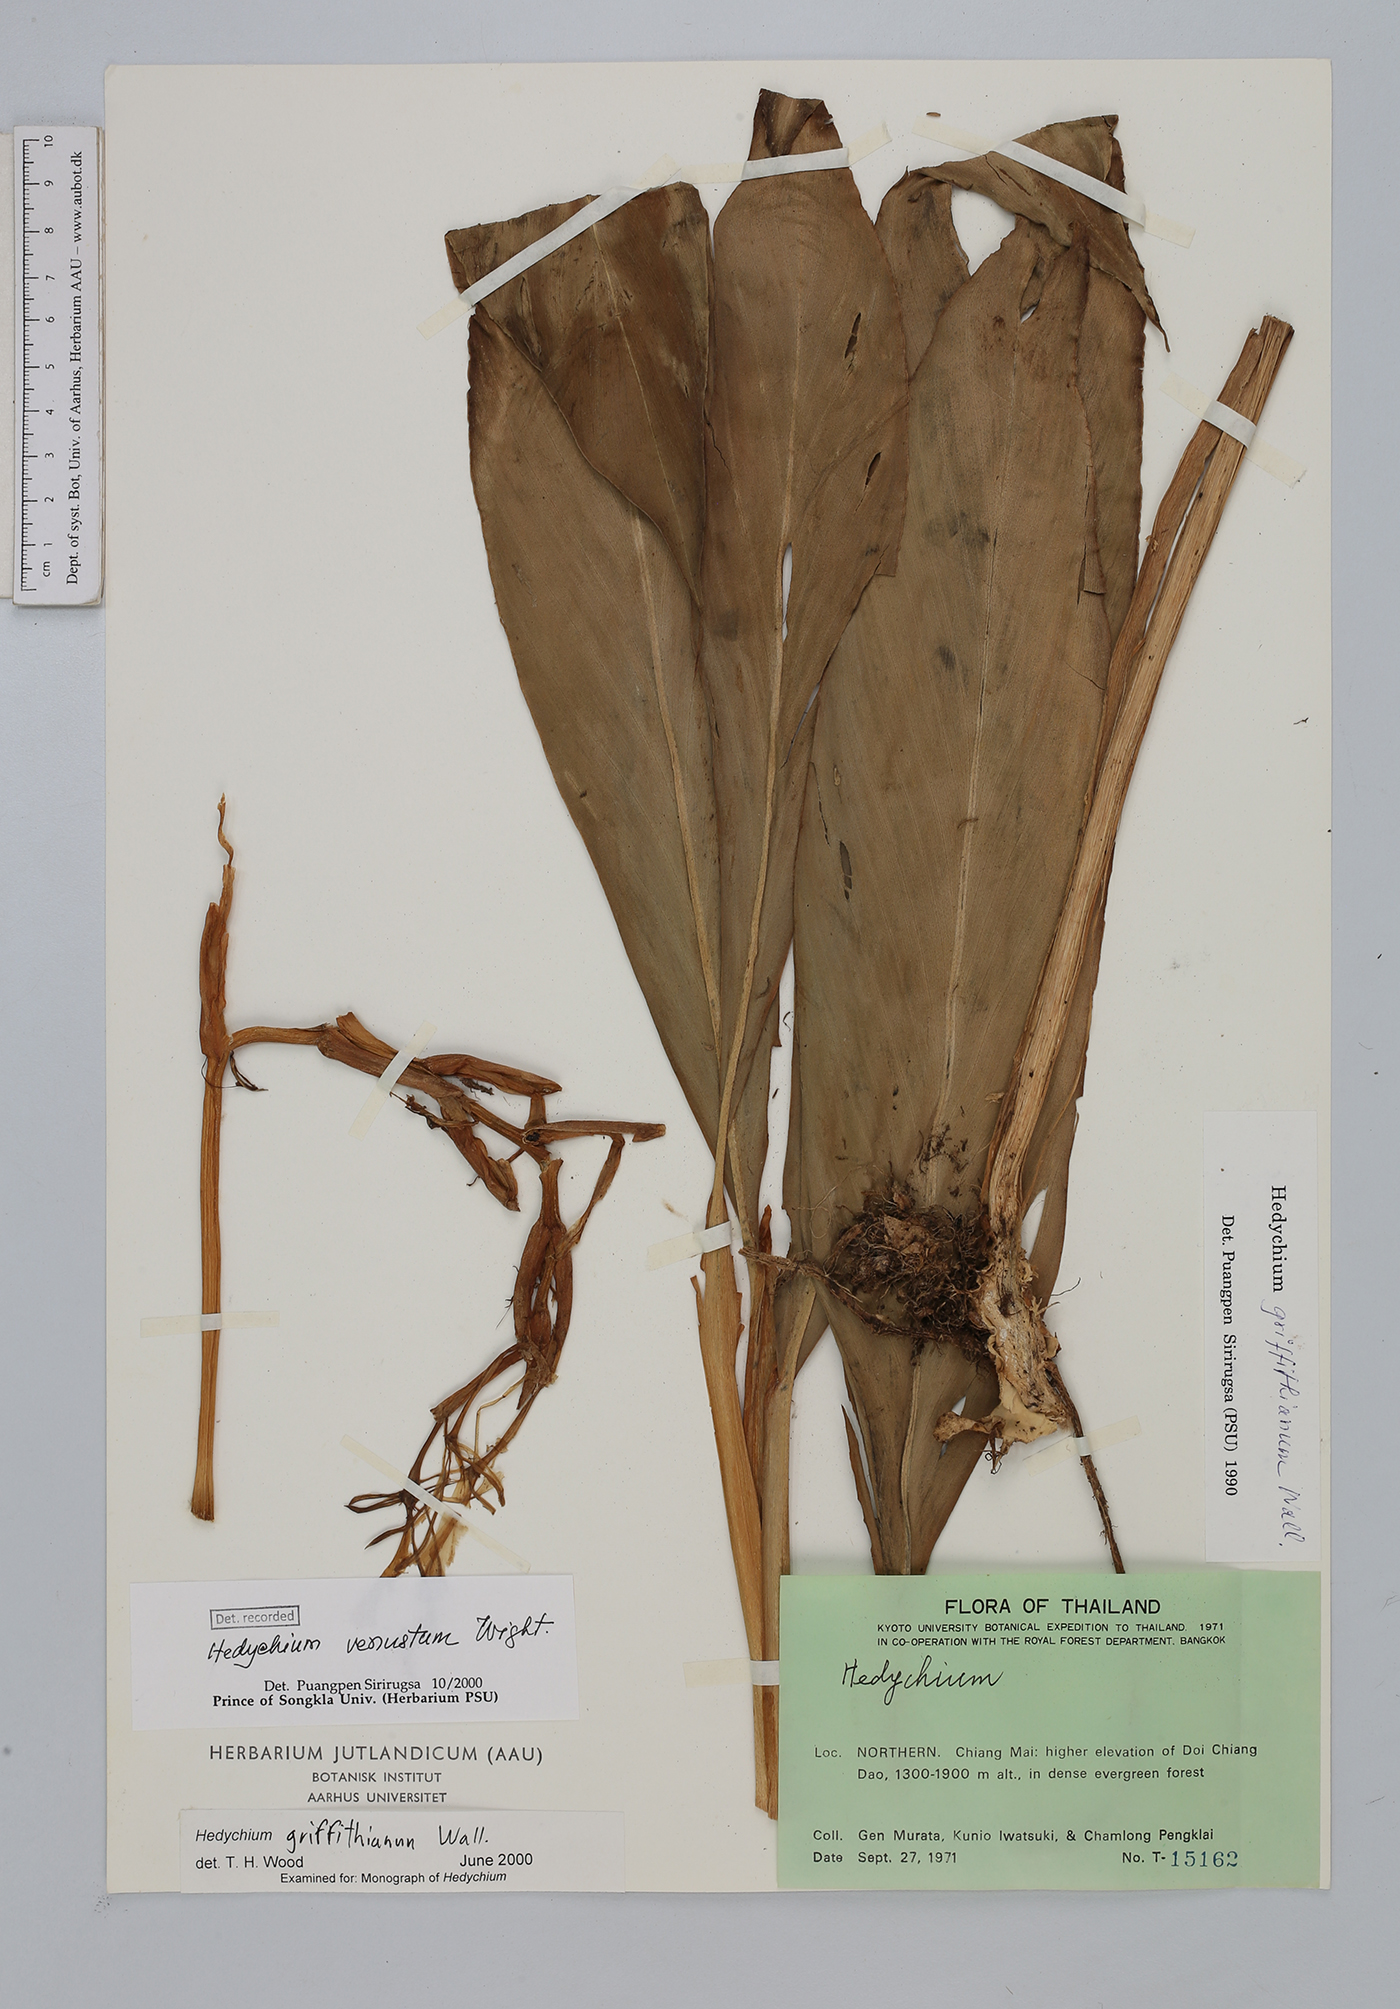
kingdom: Plantae
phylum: Tracheophyta
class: Liliopsida
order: Zingiberales
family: Zingiberaceae
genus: Hedychium
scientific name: Hedychium venustum
